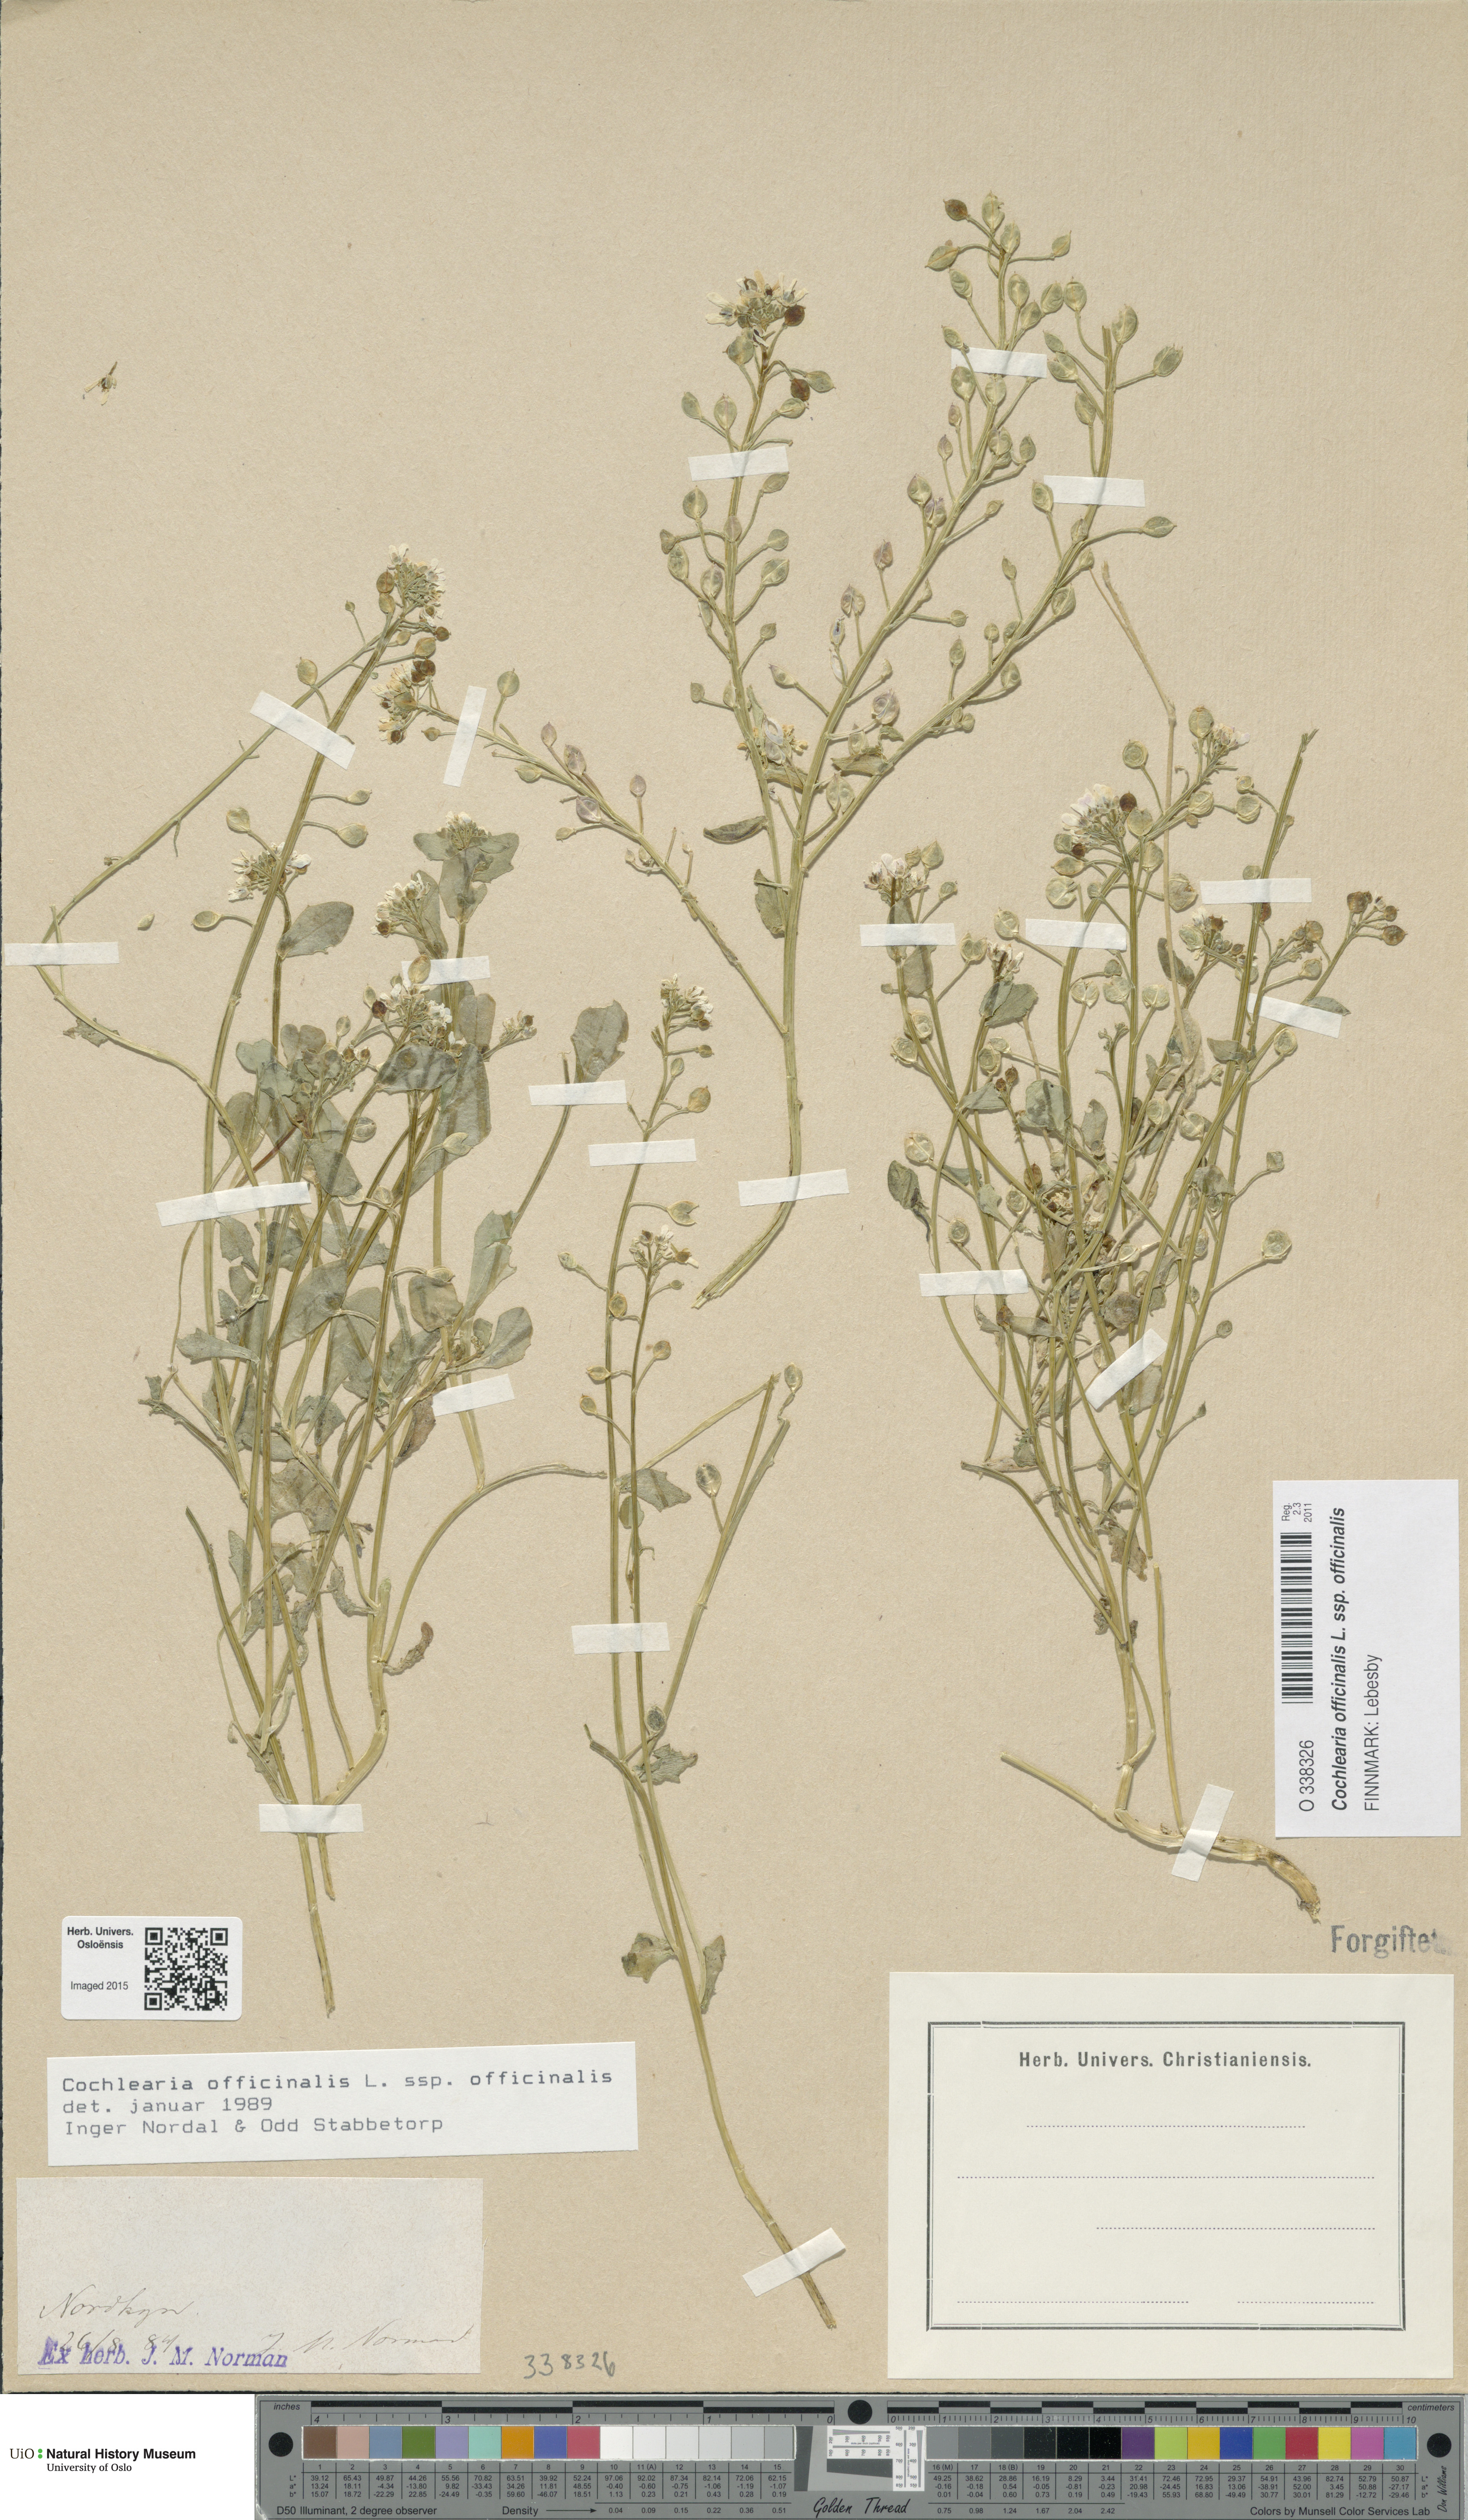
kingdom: Plantae
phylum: Tracheophyta
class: Magnoliopsida
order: Brassicales
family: Brassicaceae
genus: Cochlearia
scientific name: Cochlearia officinalis
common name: Scurvy-grass
